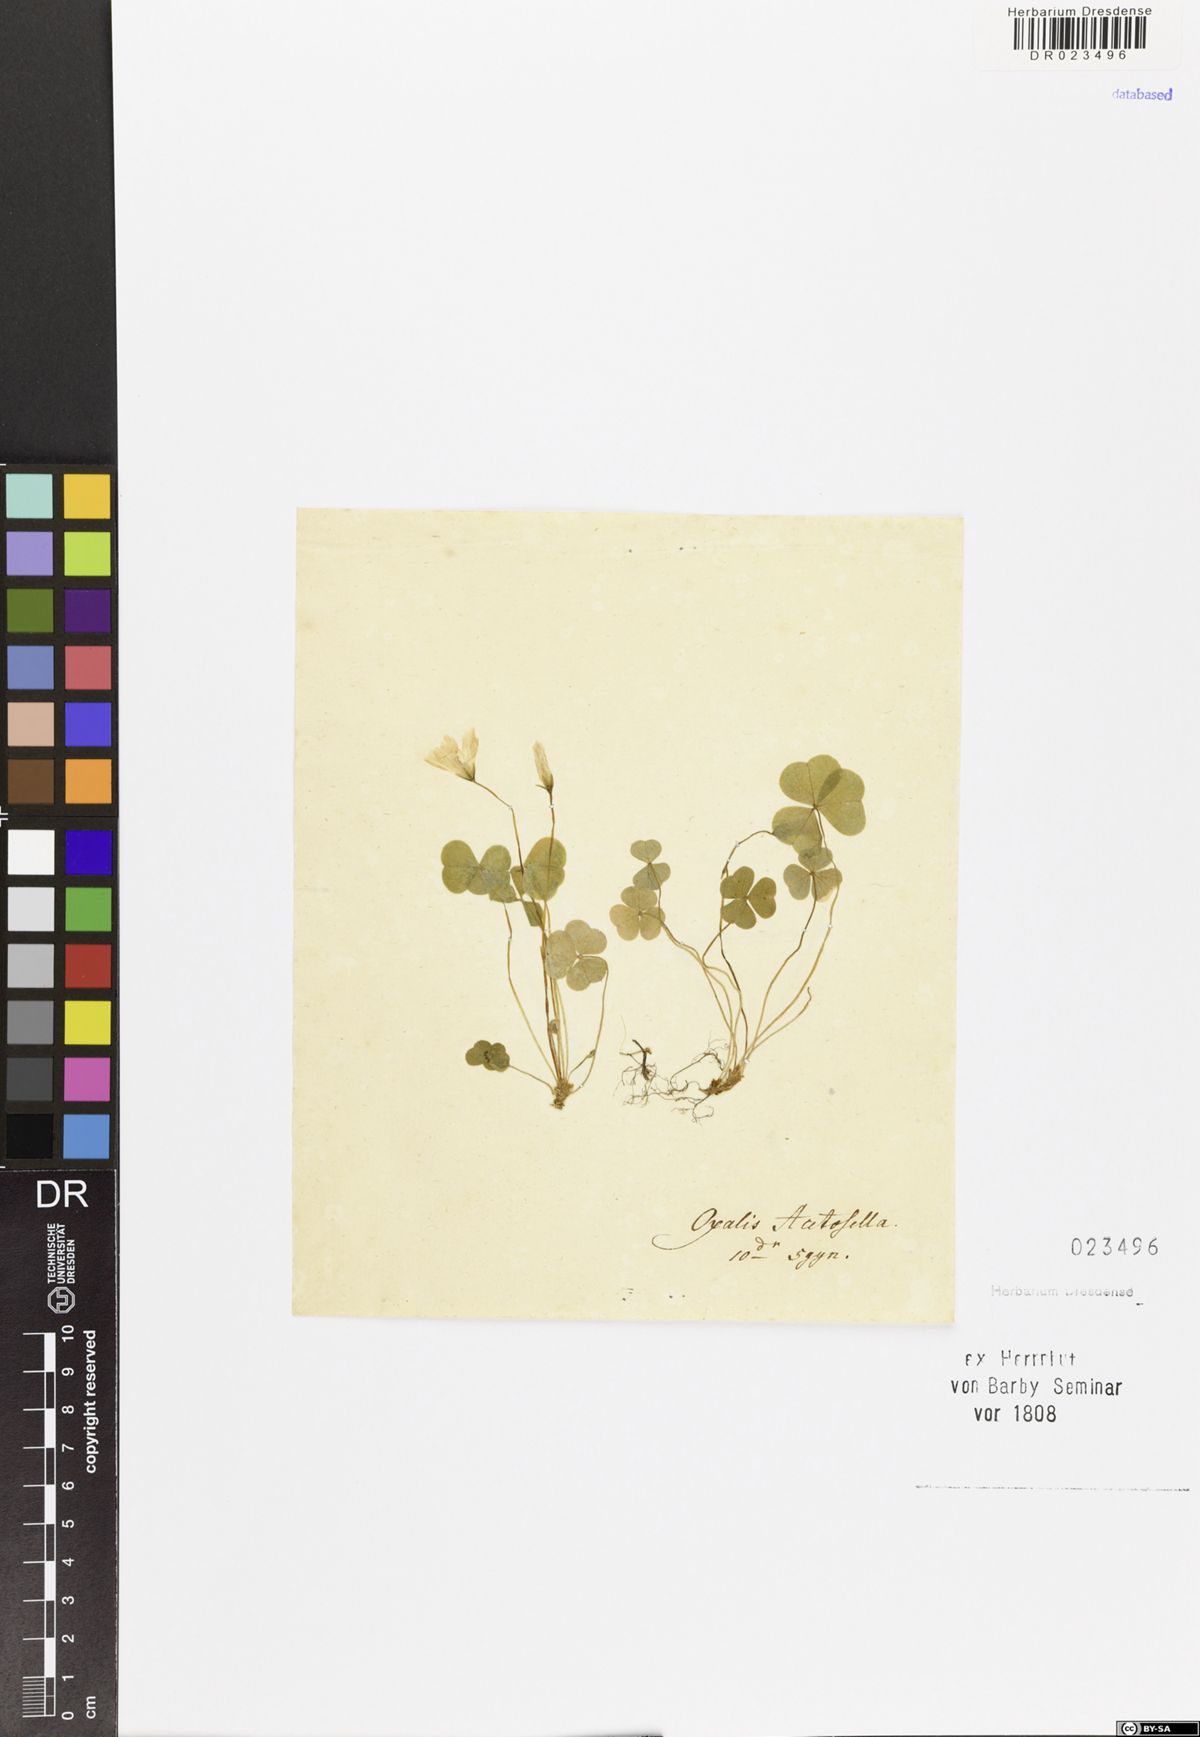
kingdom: Plantae
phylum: Tracheophyta
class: Magnoliopsida
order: Oxalidales
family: Oxalidaceae
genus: Oxalis
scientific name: Oxalis acetosella
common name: Wood-sorrel
